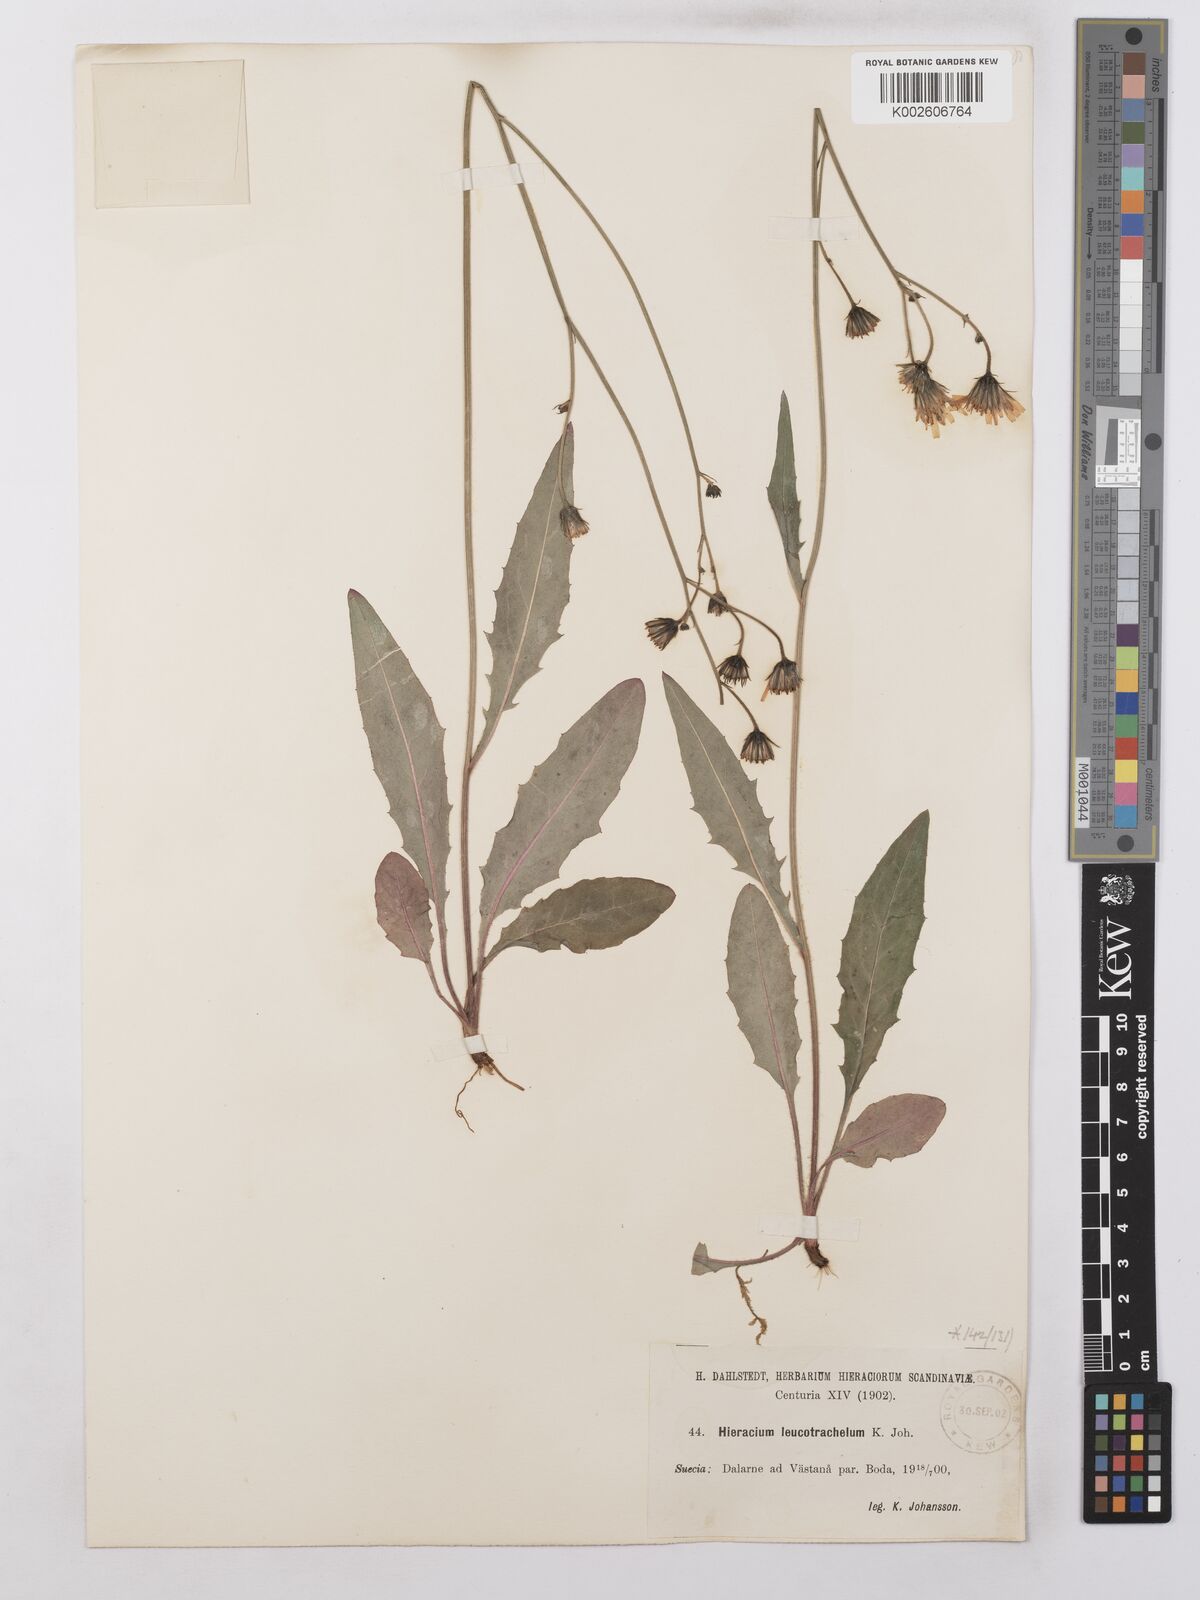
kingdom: Plantae
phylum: Tracheophyta
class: Magnoliopsida
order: Asterales
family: Asteraceae
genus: Hieracium
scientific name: Hieracium lachenalii
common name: Common hawkweed
